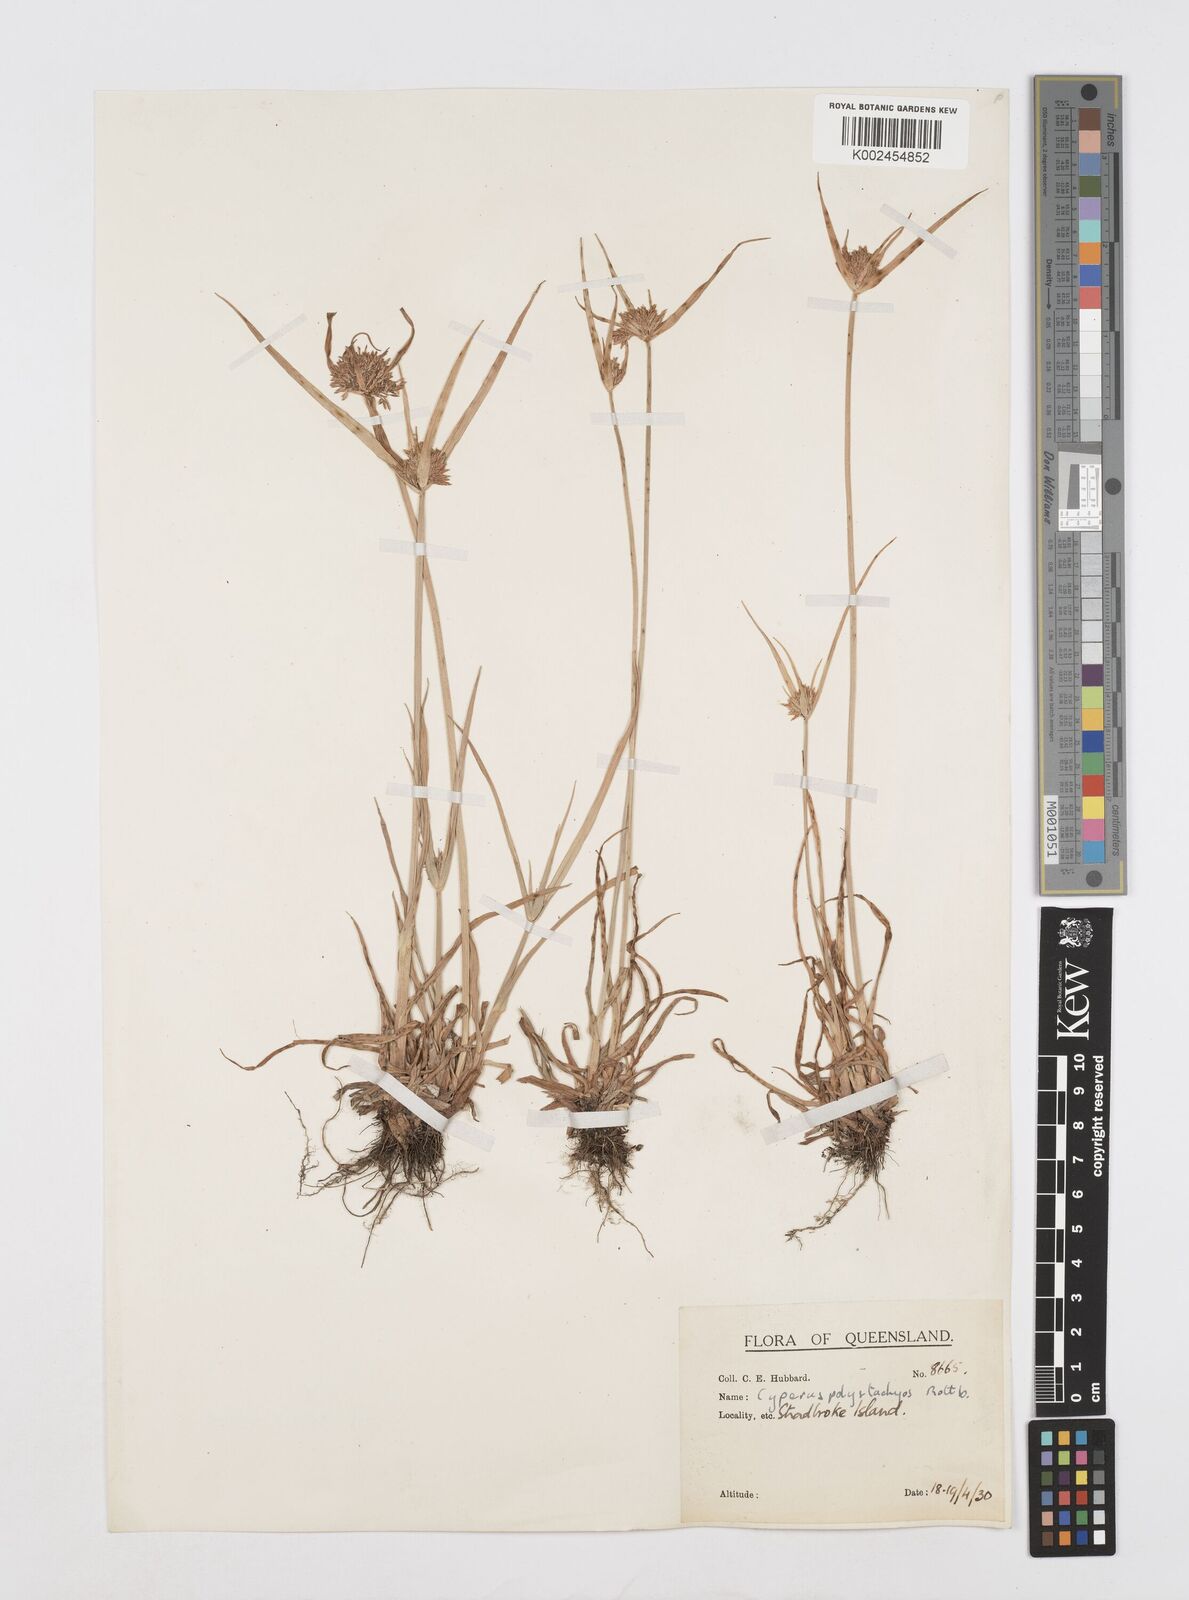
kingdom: Plantae
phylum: Tracheophyta
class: Liliopsida
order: Poales
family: Cyperaceae
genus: Cyperus
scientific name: Cyperus polystachyos
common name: Bunchy flat sedge
